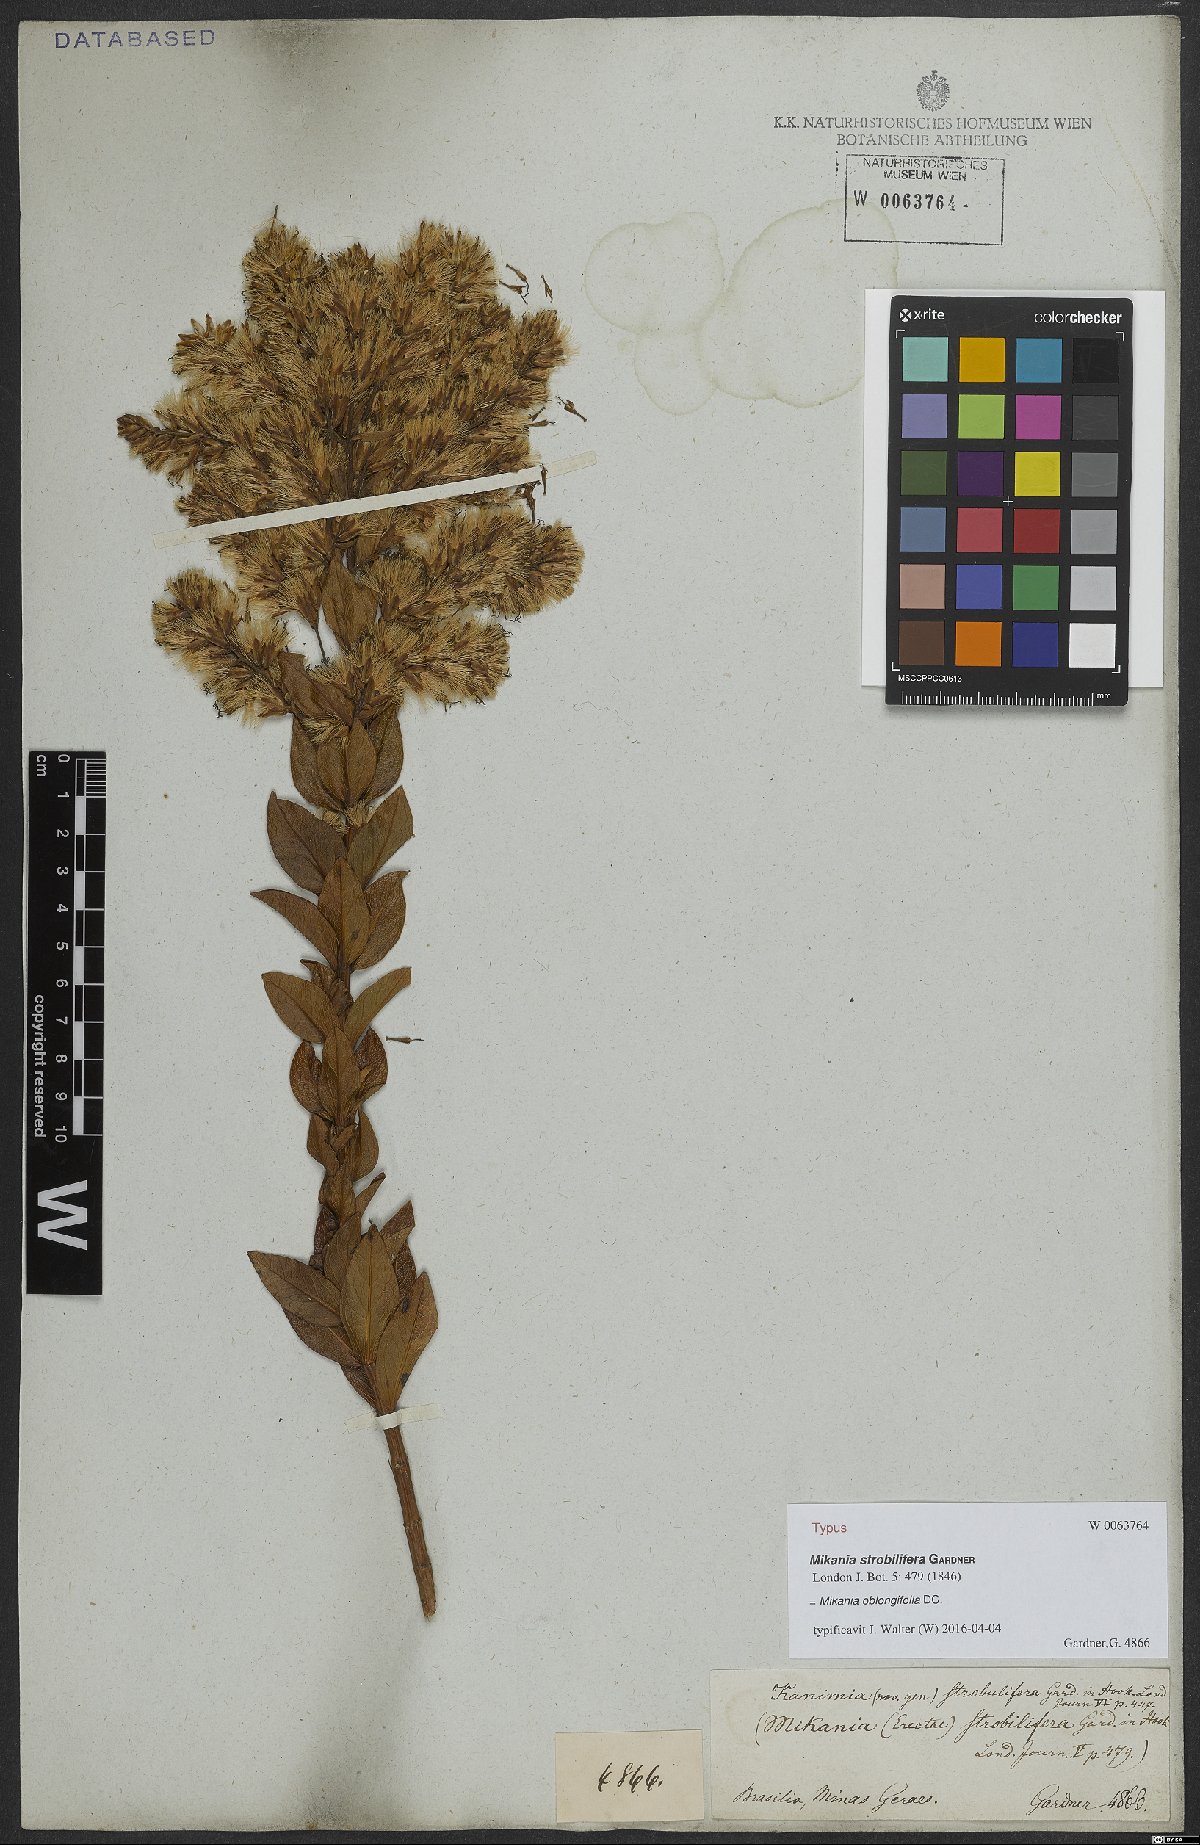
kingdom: Plantae
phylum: Tracheophyta
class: Magnoliopsida
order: Asterales
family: Asteraceae
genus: Mikania
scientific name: Mikania oblongifolia
